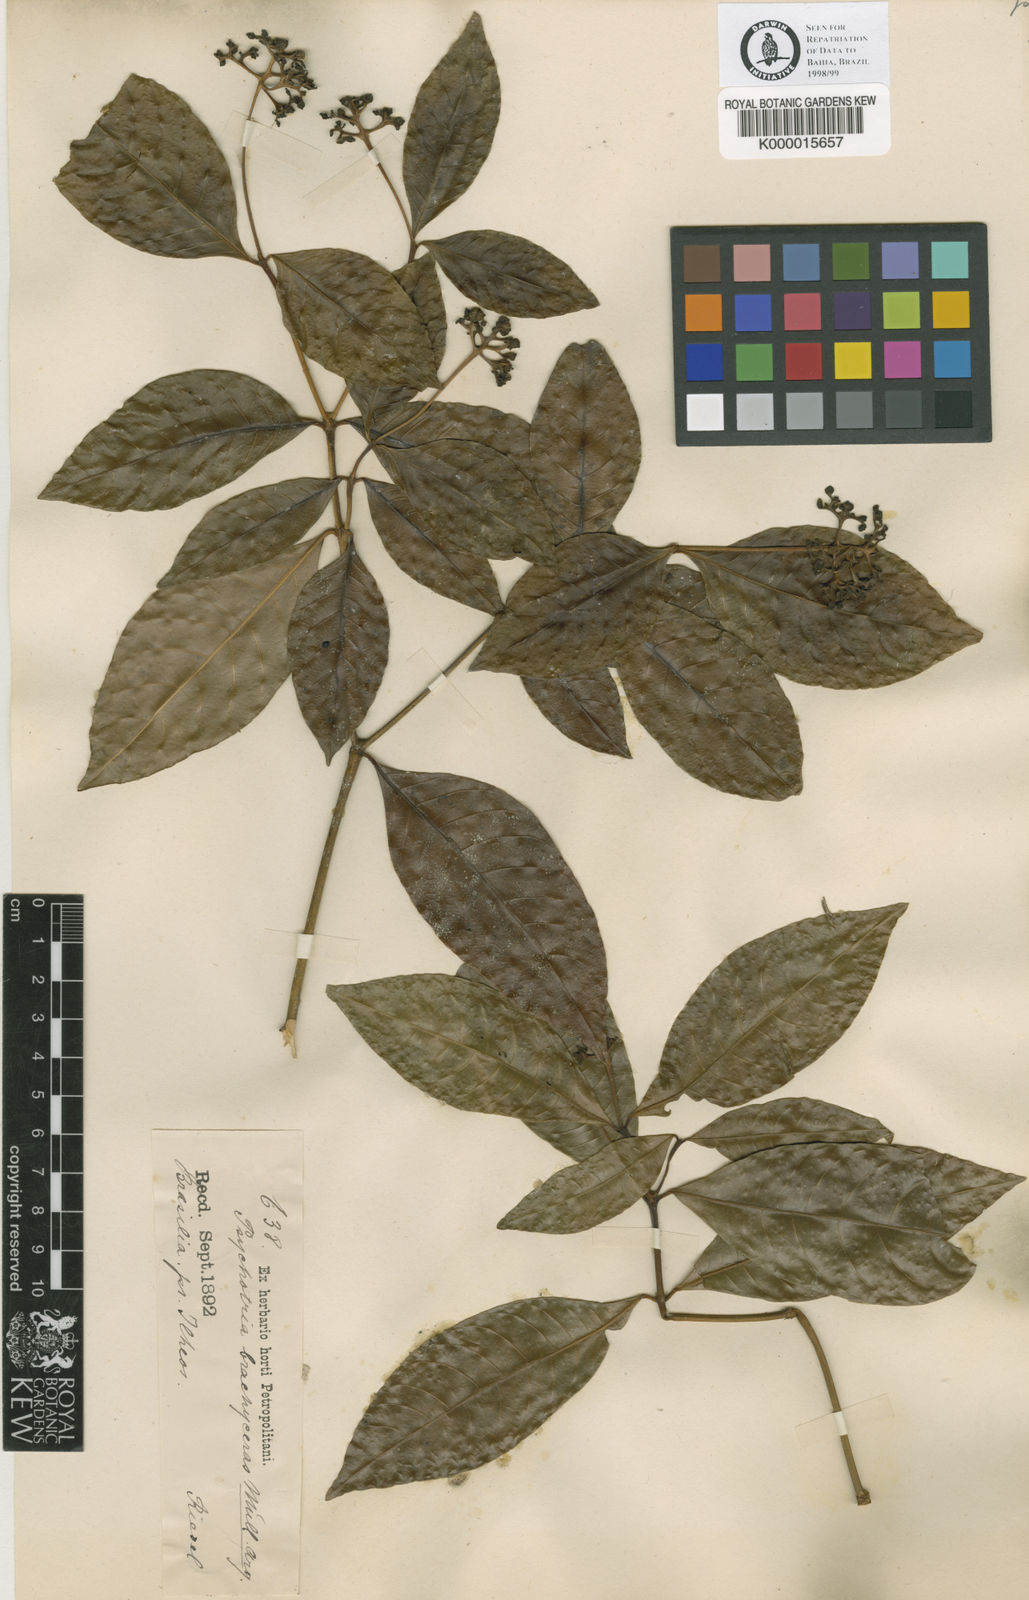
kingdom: Plantae
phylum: Tracheophyta
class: Magnoliopsida
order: Gentianales
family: Rubiaceae
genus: Psychotria
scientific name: Psychotria
